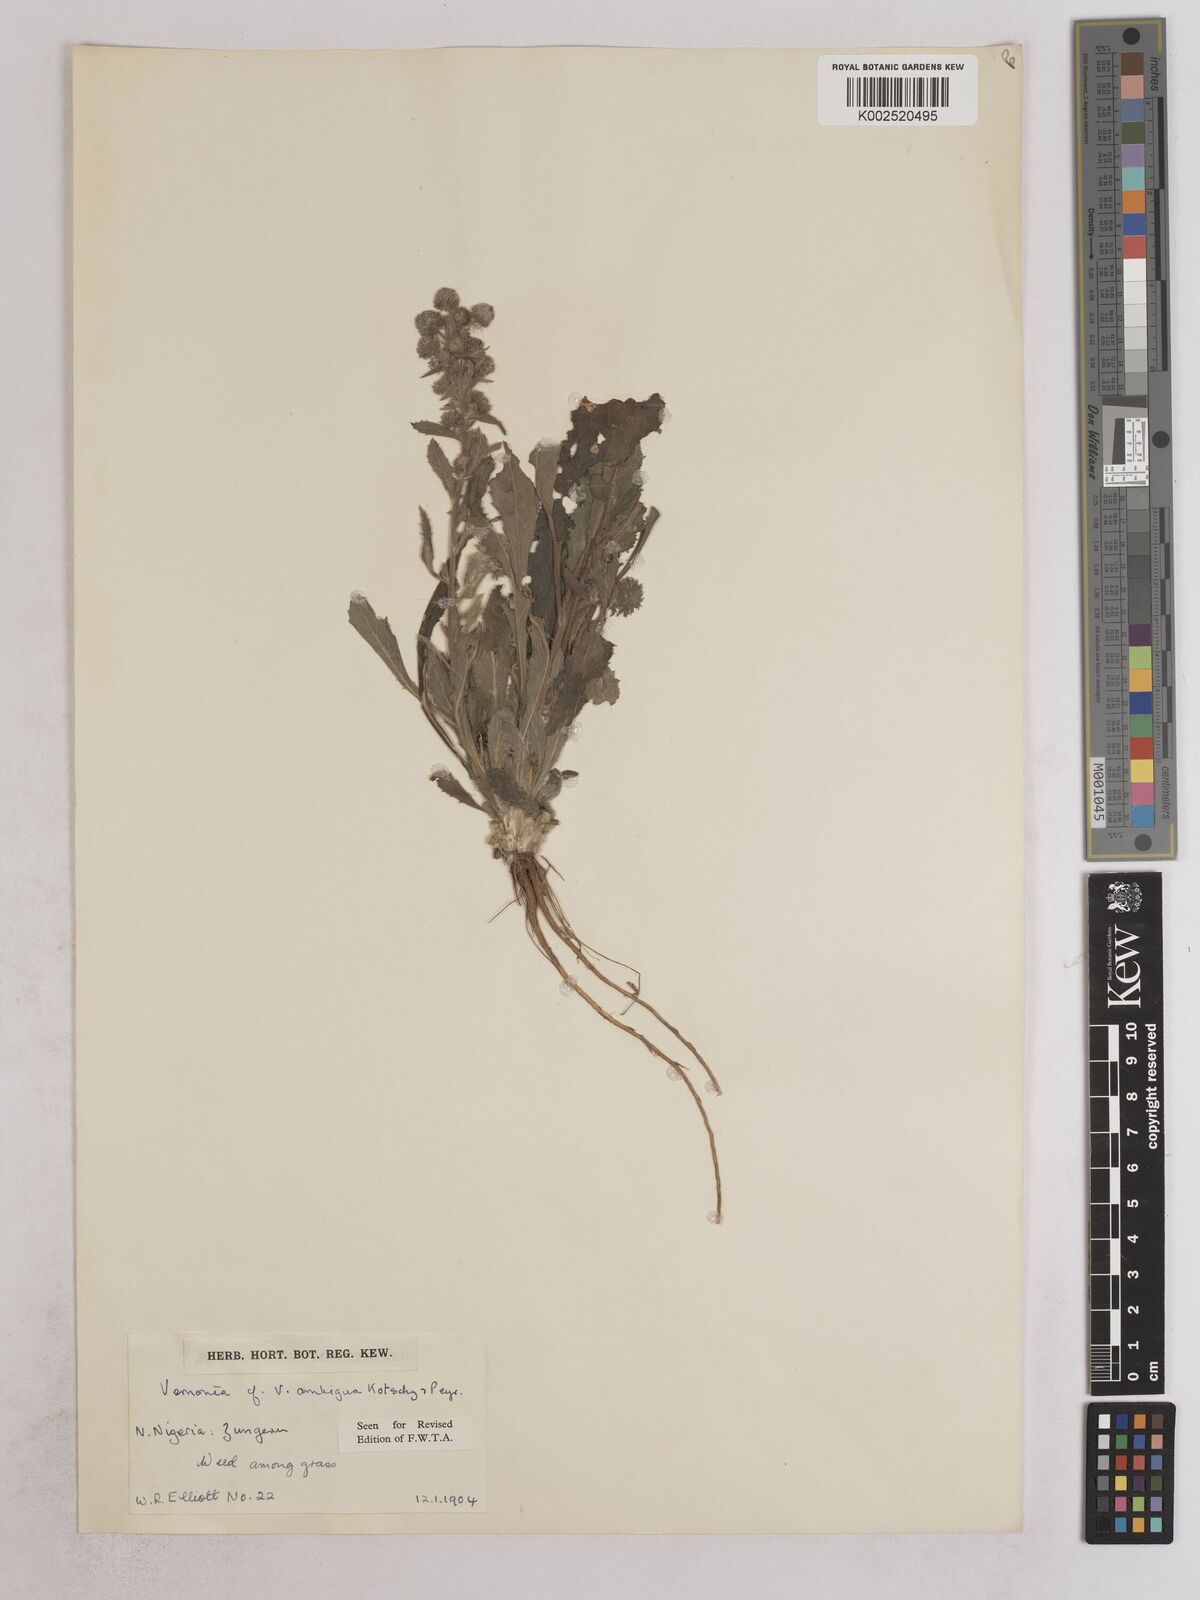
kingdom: Plantae
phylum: Tracheophyta
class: Magnoliopsida
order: Asterales
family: Asteraceae
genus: Vernoniastrum
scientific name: Vernoniastrum ambiguum
